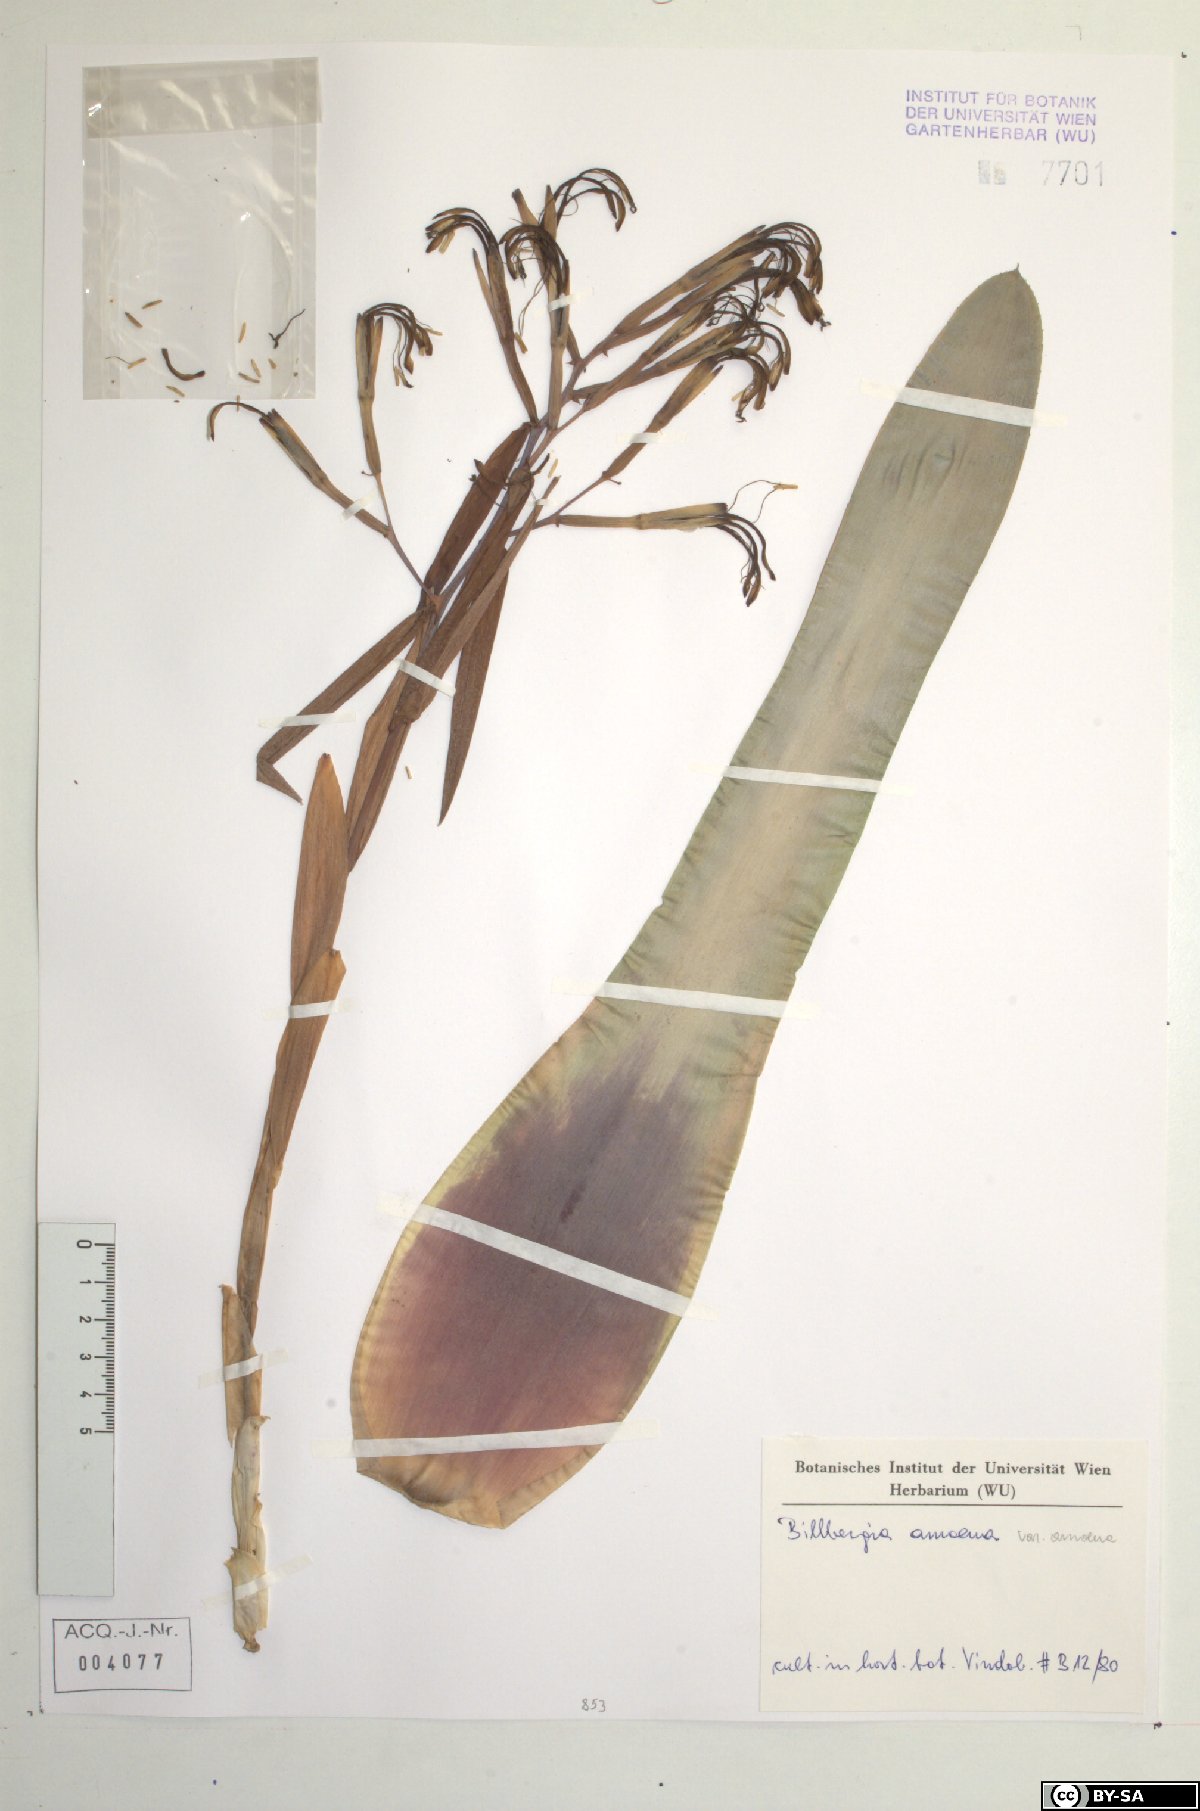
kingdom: Plantae
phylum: Tracheophyta
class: Liliopsida
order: Poales
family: Bromeliaceae
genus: Billbergia
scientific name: Billbergia
